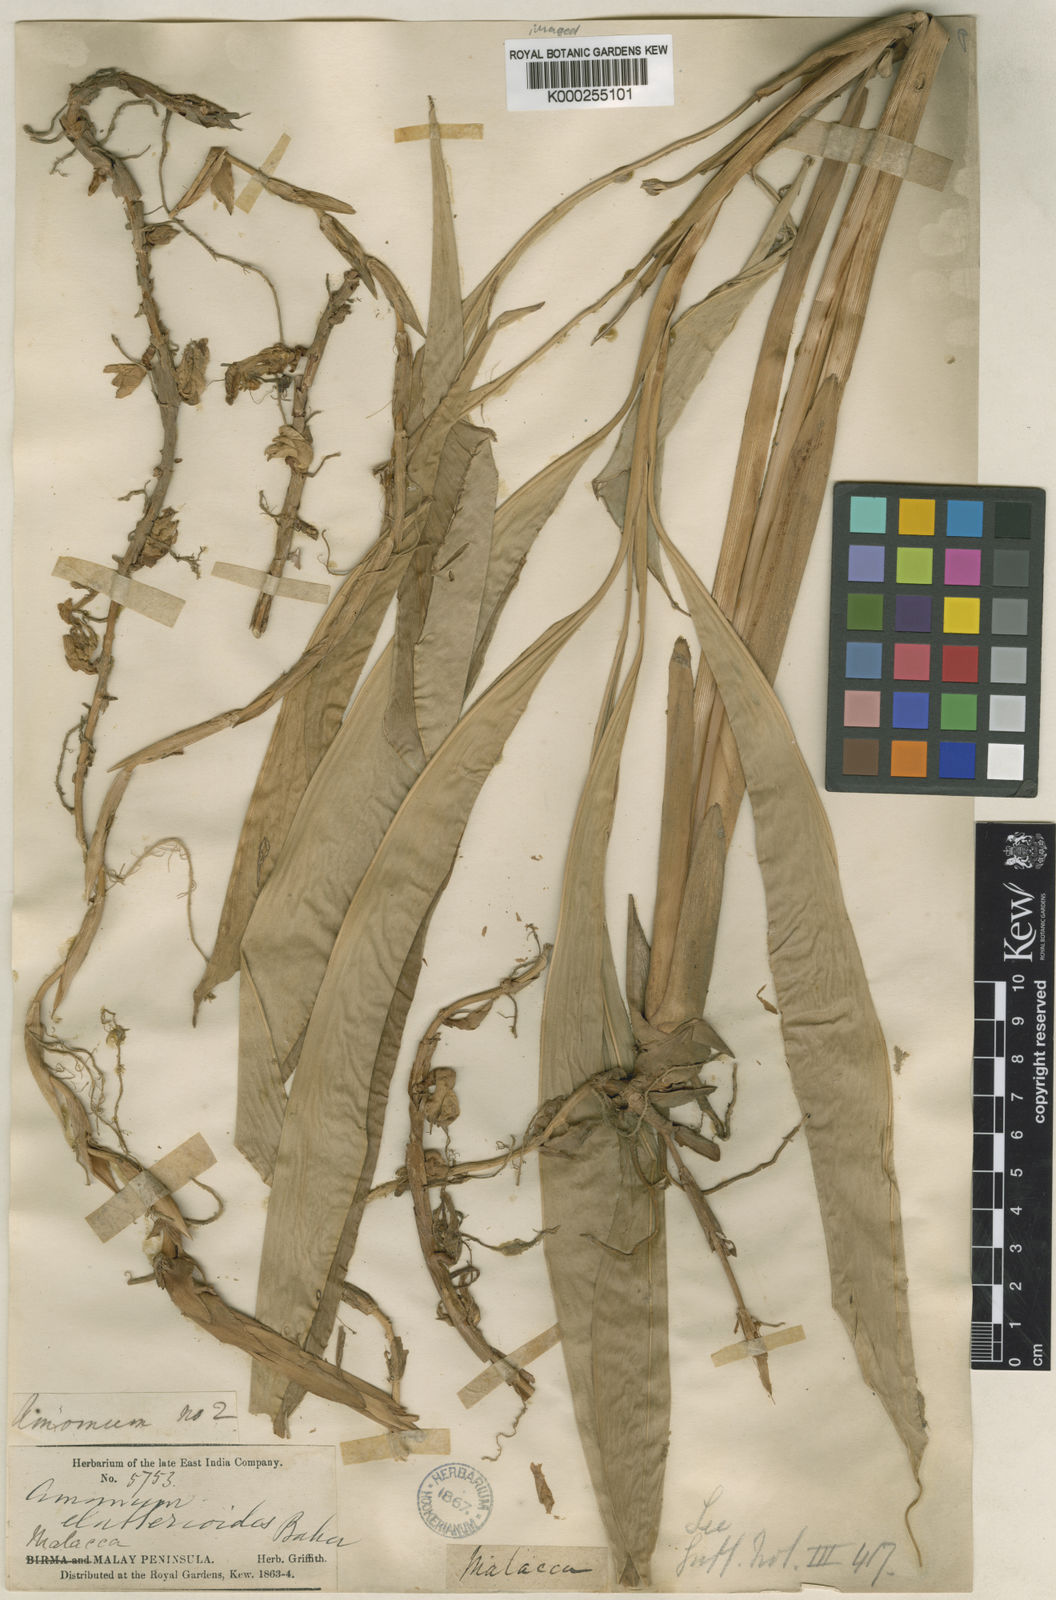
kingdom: Plantae
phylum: Tracheophyta
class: Liliopsida
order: Zingiberales
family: Zingiberaceae
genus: Wurfbainia
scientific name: Wurfbainia biflora
